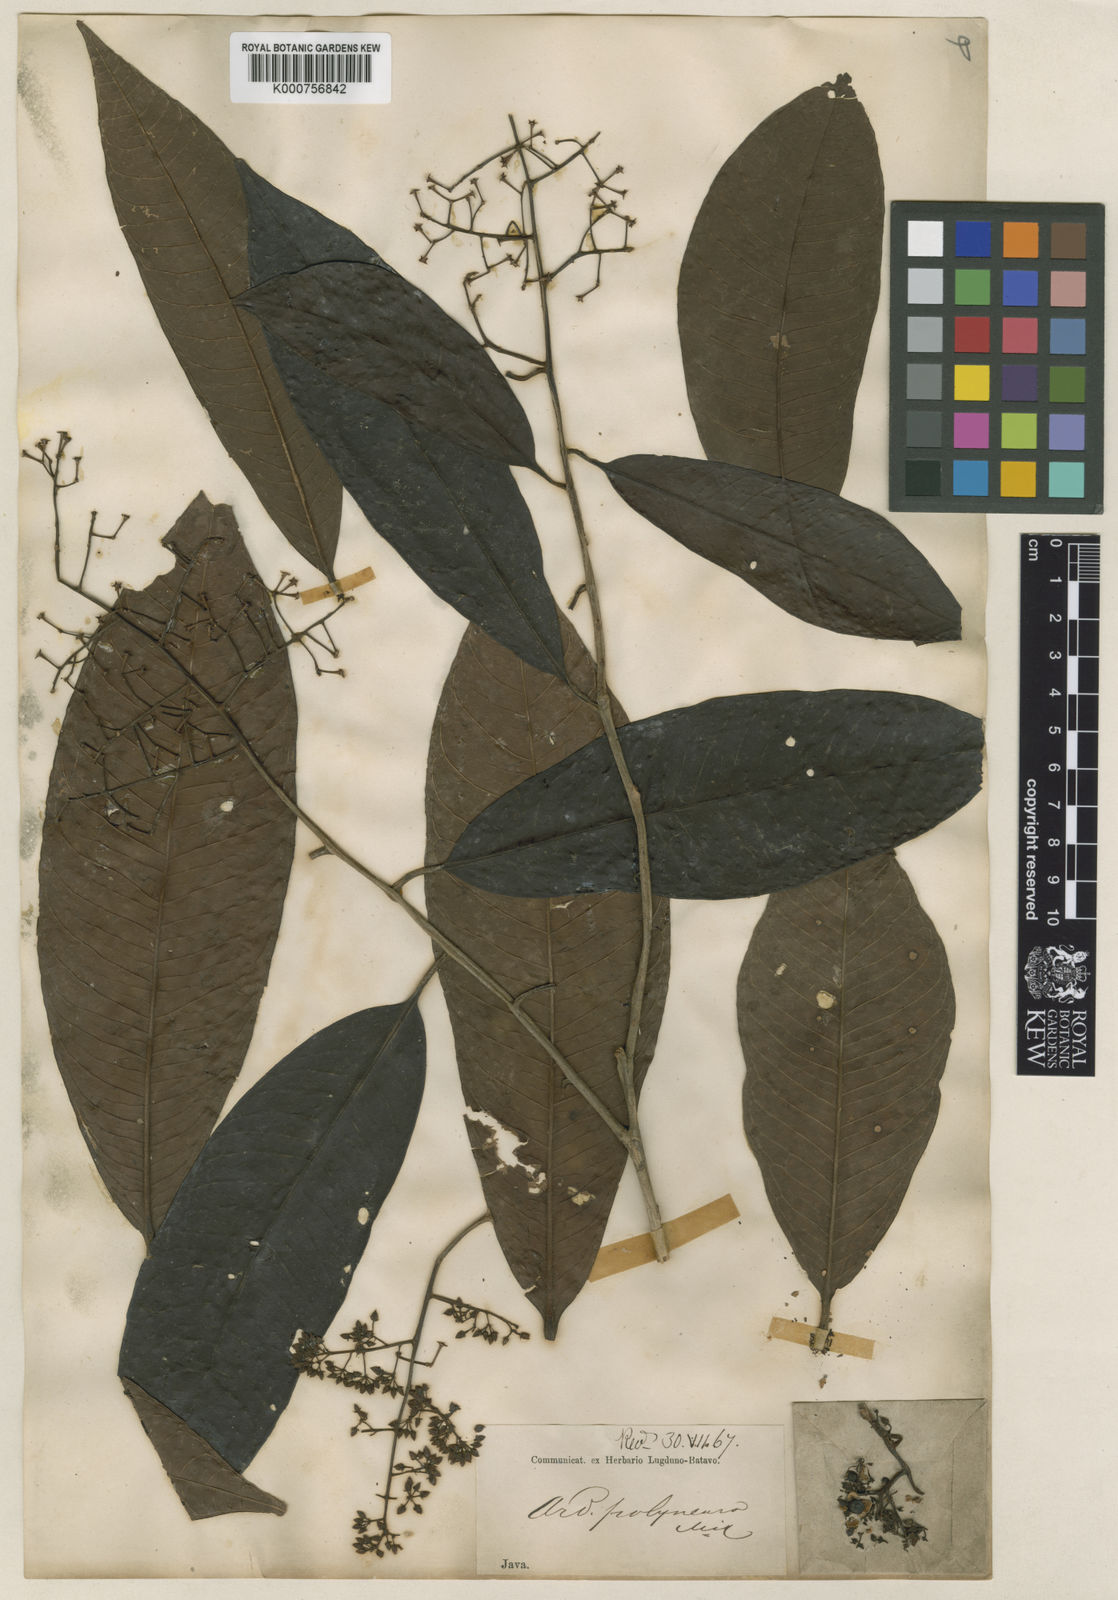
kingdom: Plantae
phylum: Tracheophyta
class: Magnoliopsida
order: Ericales
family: Primulaceae
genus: Ardisia
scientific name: Ardisia complanata
